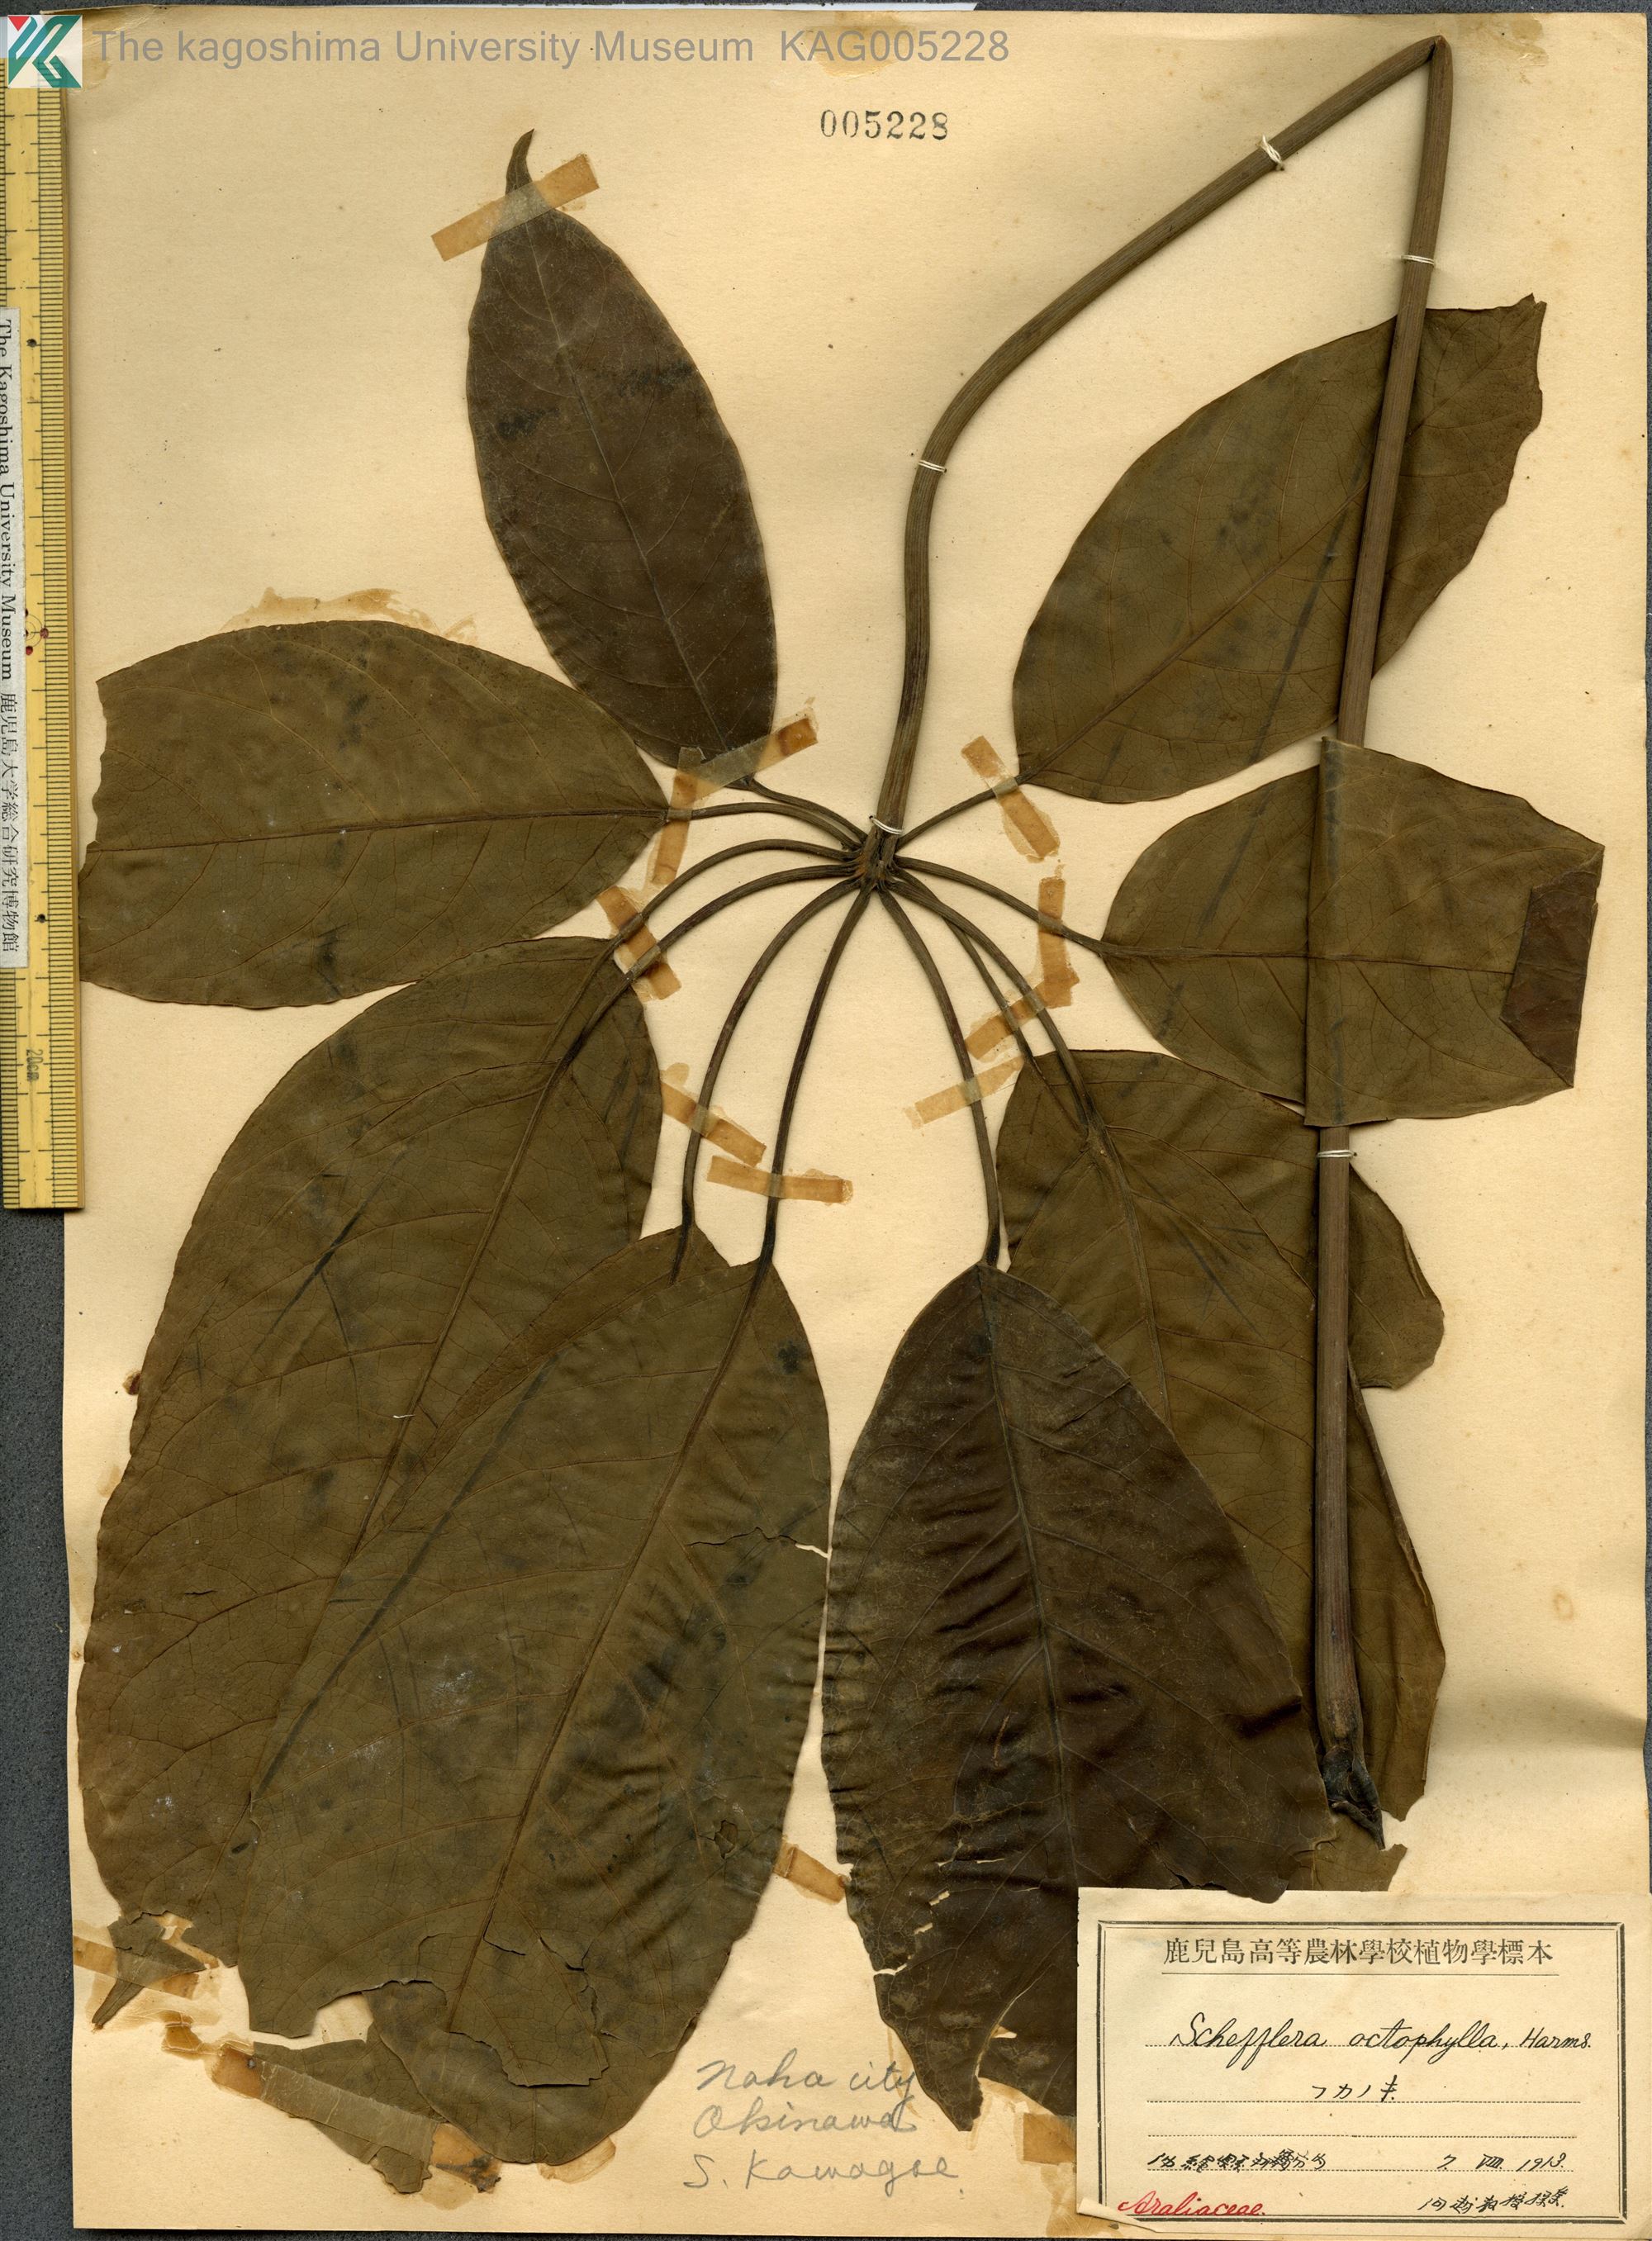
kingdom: Plantae
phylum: Tracheophyta
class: Magnoliopsida
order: Apiales
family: Araliaceae
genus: Heptapleurum
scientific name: Heptapleurum heptaphyllum
